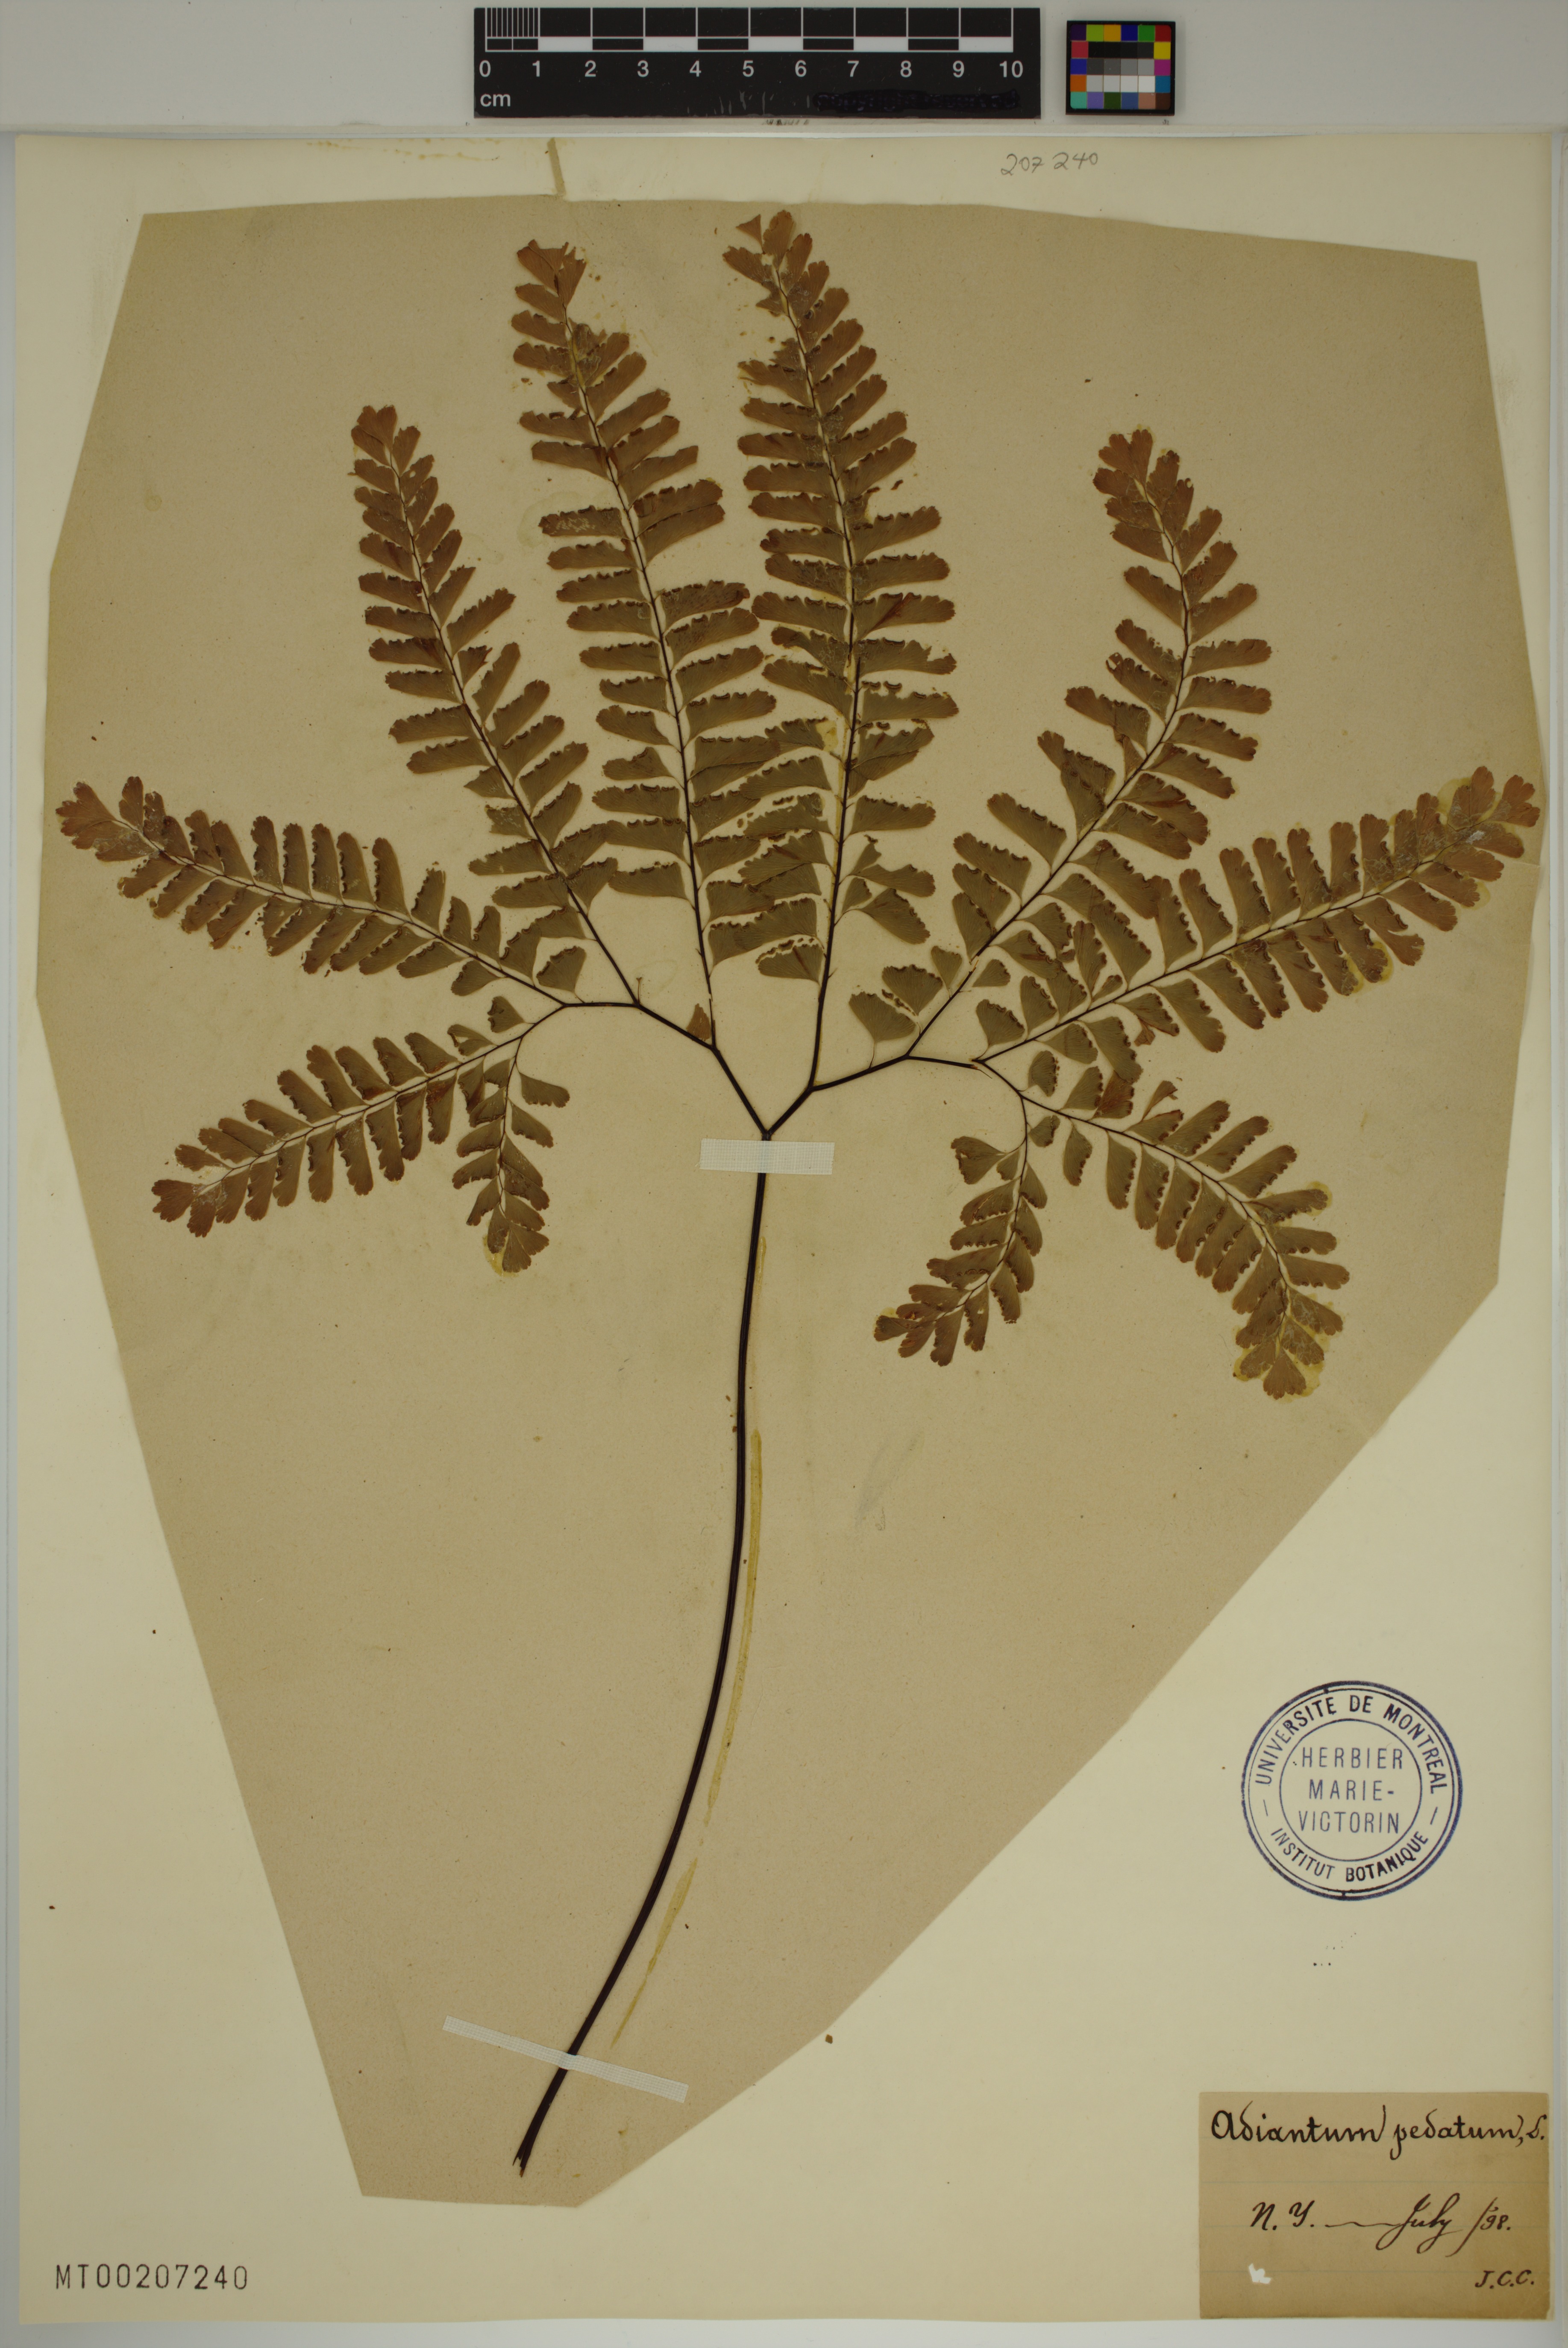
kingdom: Plantae
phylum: Tracheophyta
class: Polypodiopsida
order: Polypodiales
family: Pteridaceae
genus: Adiantum
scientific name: Adiantum pedatum
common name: Five-finger fern
